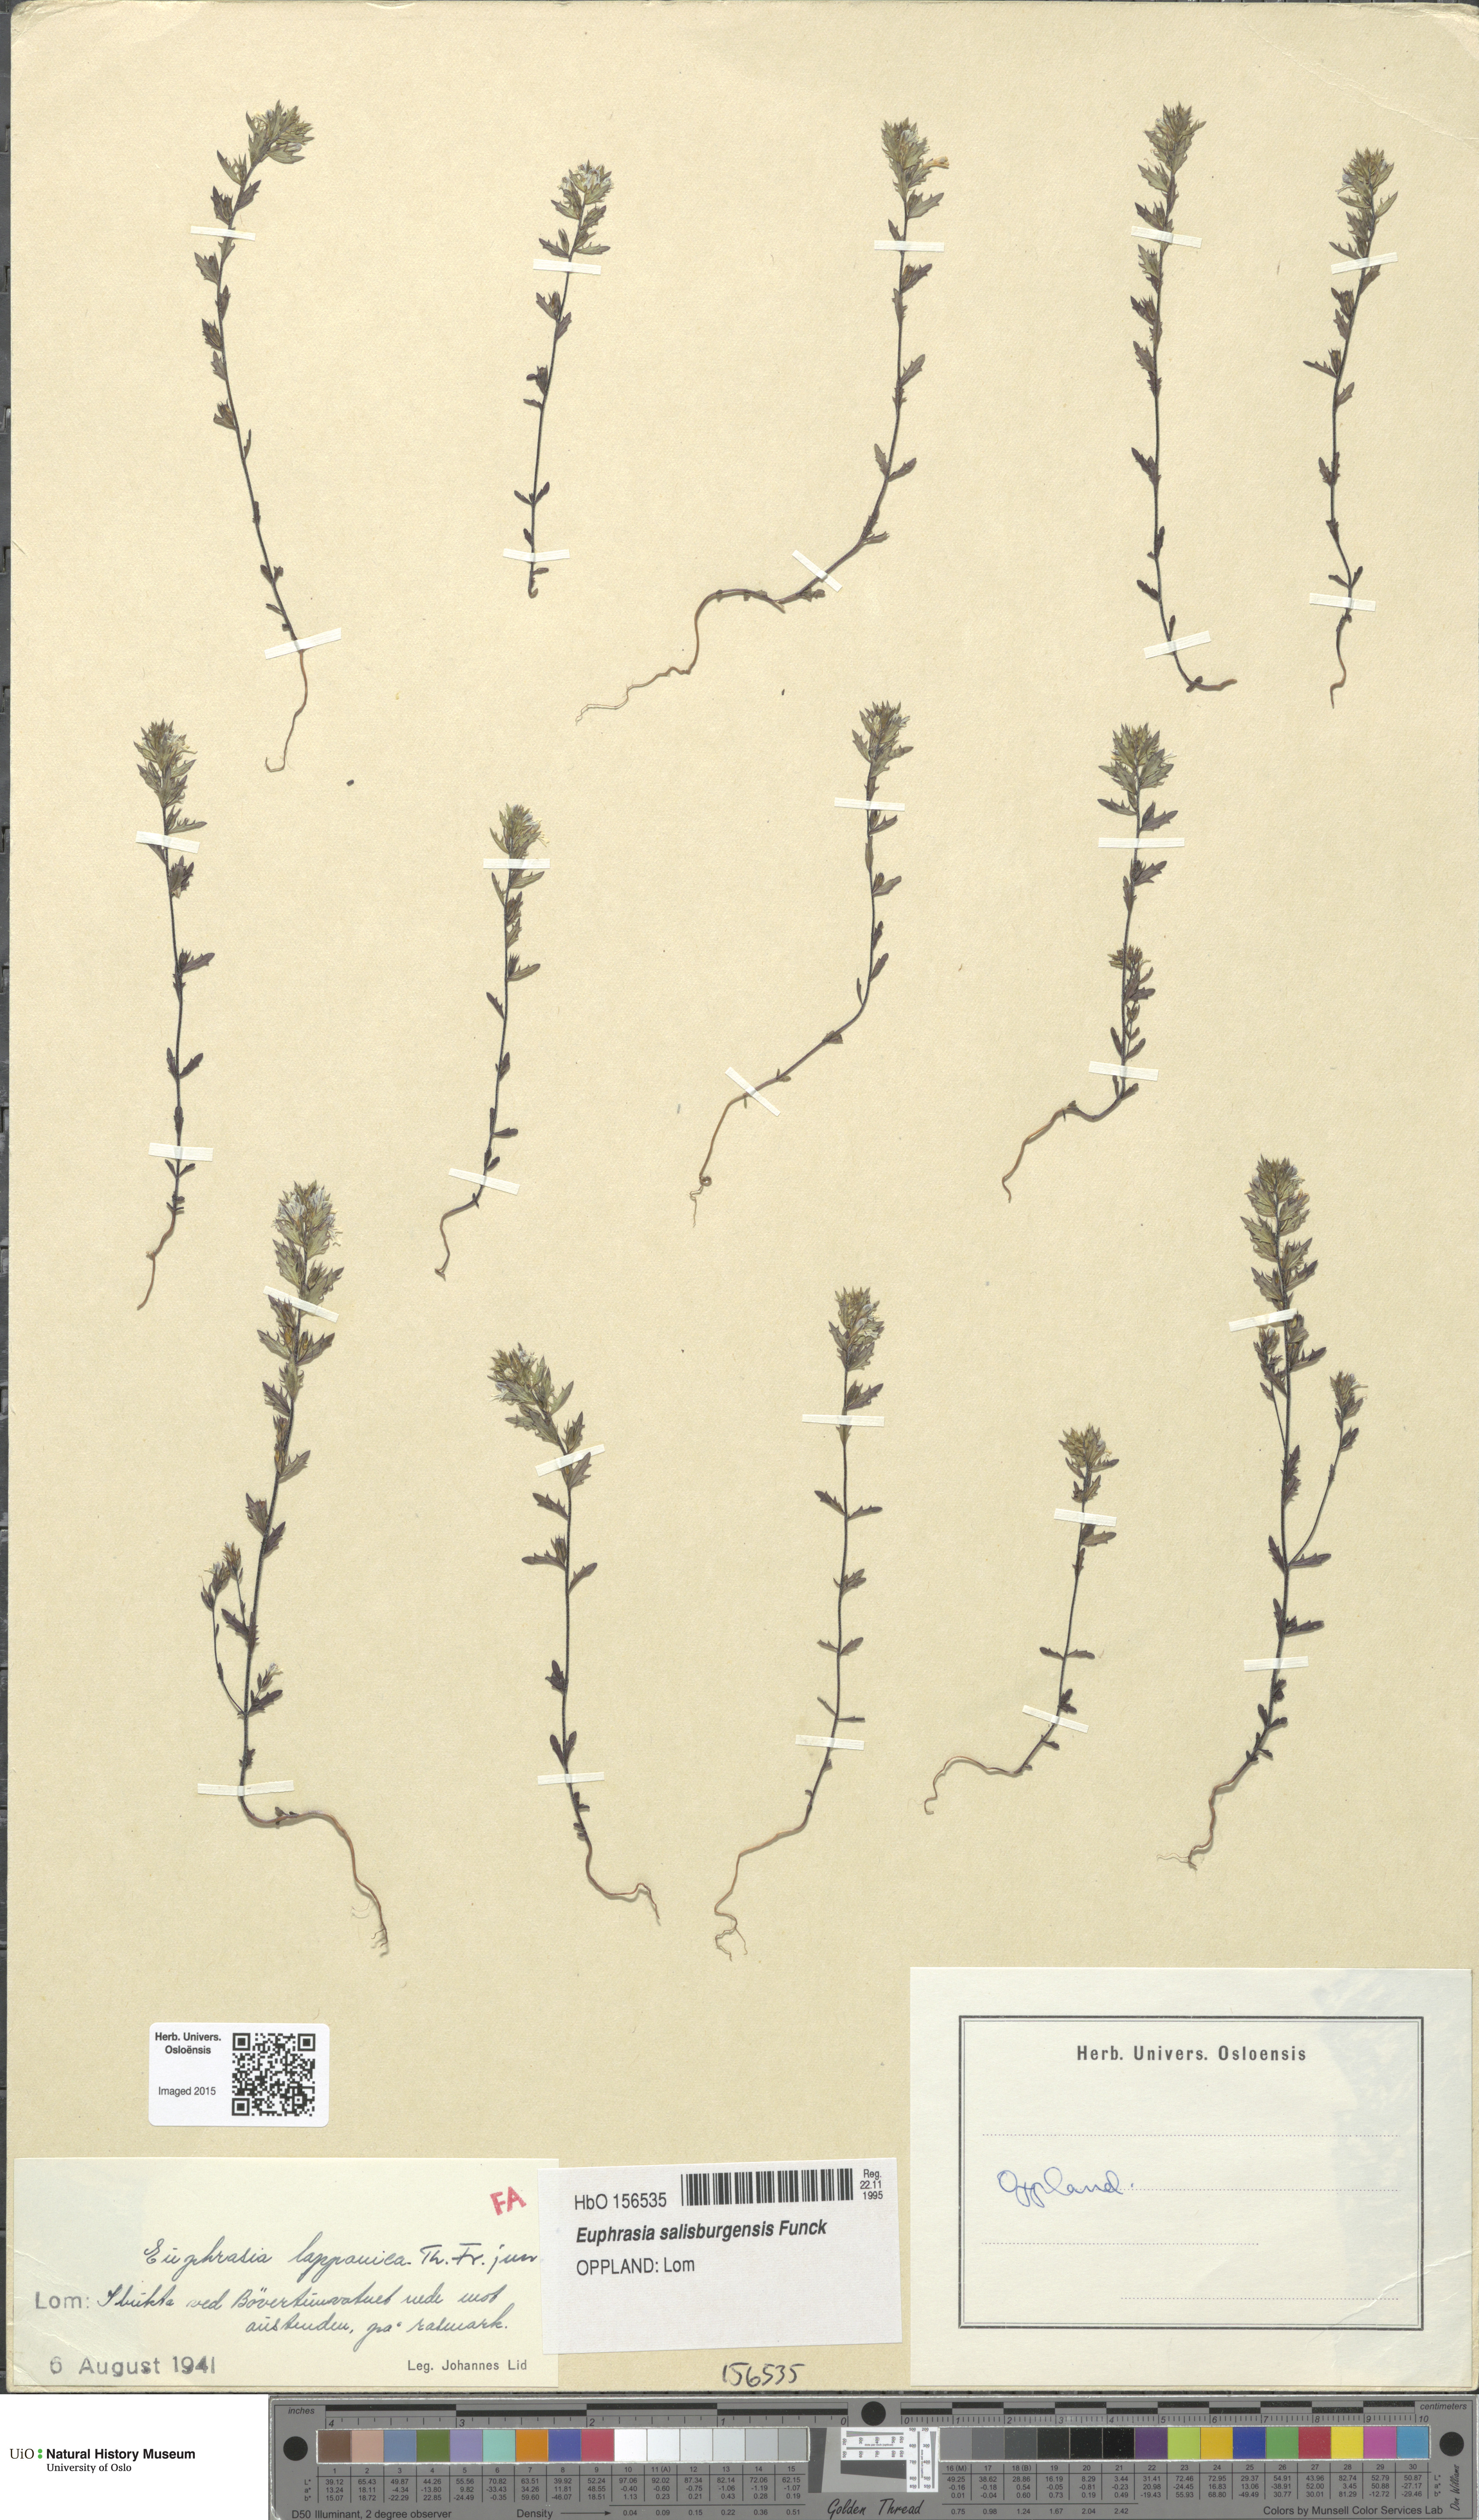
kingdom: Plantae
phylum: Tracheophyta
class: Magnoliopsida
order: Lamiales
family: Orobanchaceae
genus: Euphrasia
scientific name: Euphrasia salisburgensis
